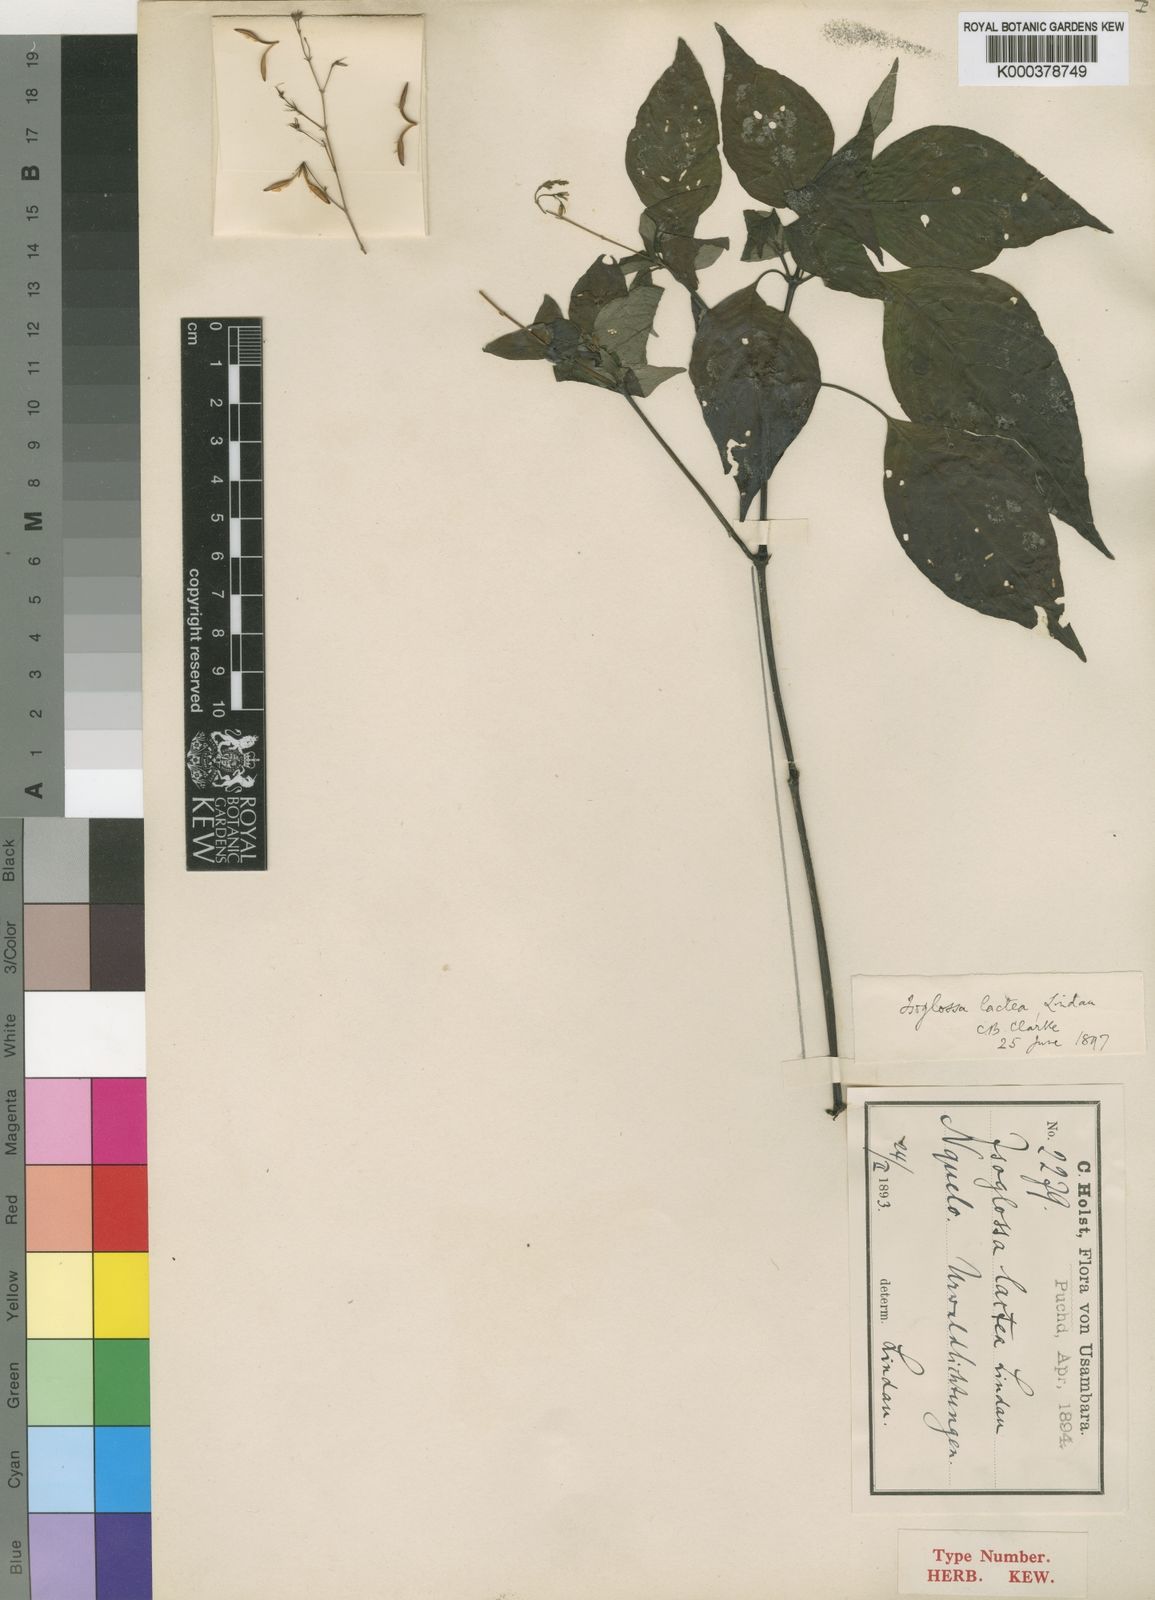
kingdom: Plantae
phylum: Tracheophyta
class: Magnoliopsida
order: Lamiales
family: Acanthaceae
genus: Isoglossa
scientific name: Isoglossa lactea
